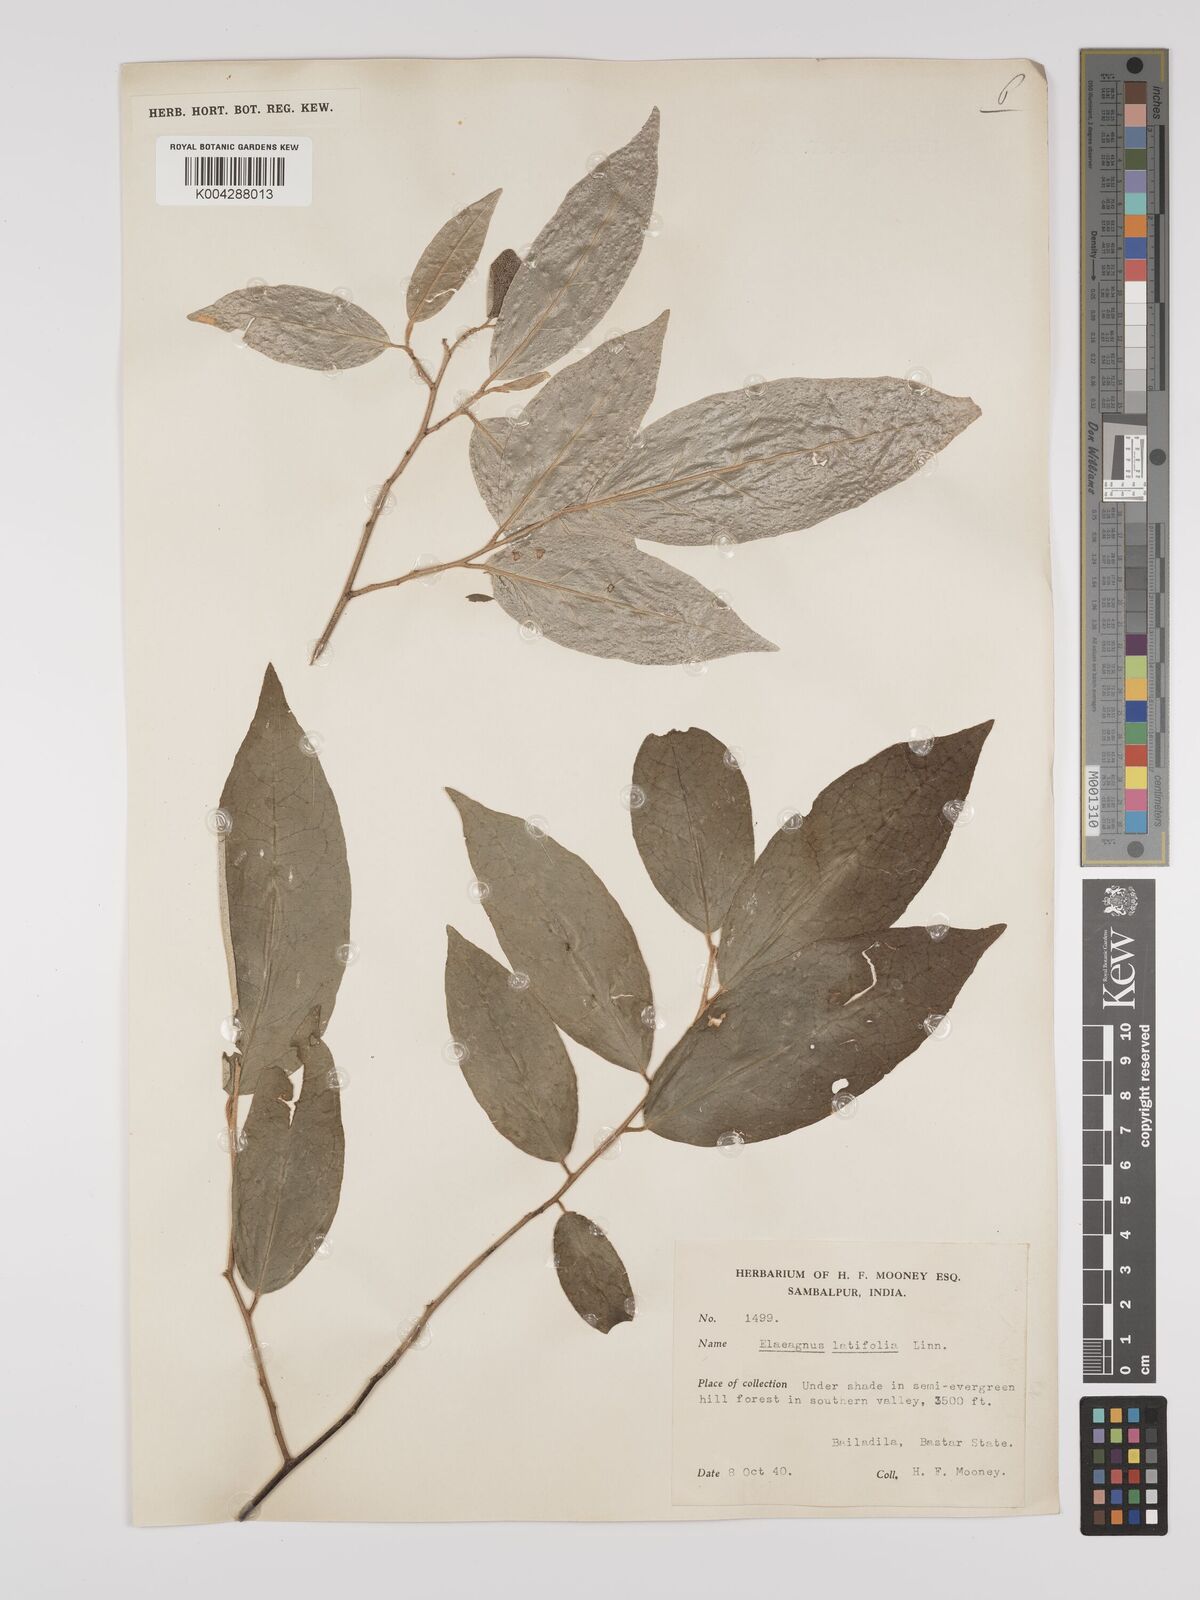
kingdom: Plantae
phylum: Tracheophyta
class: Magnoliopsida
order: Rosales
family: Elaeagnaceae
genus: Elaeagnus
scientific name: Elaeagnus latifolia
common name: Oleaster
